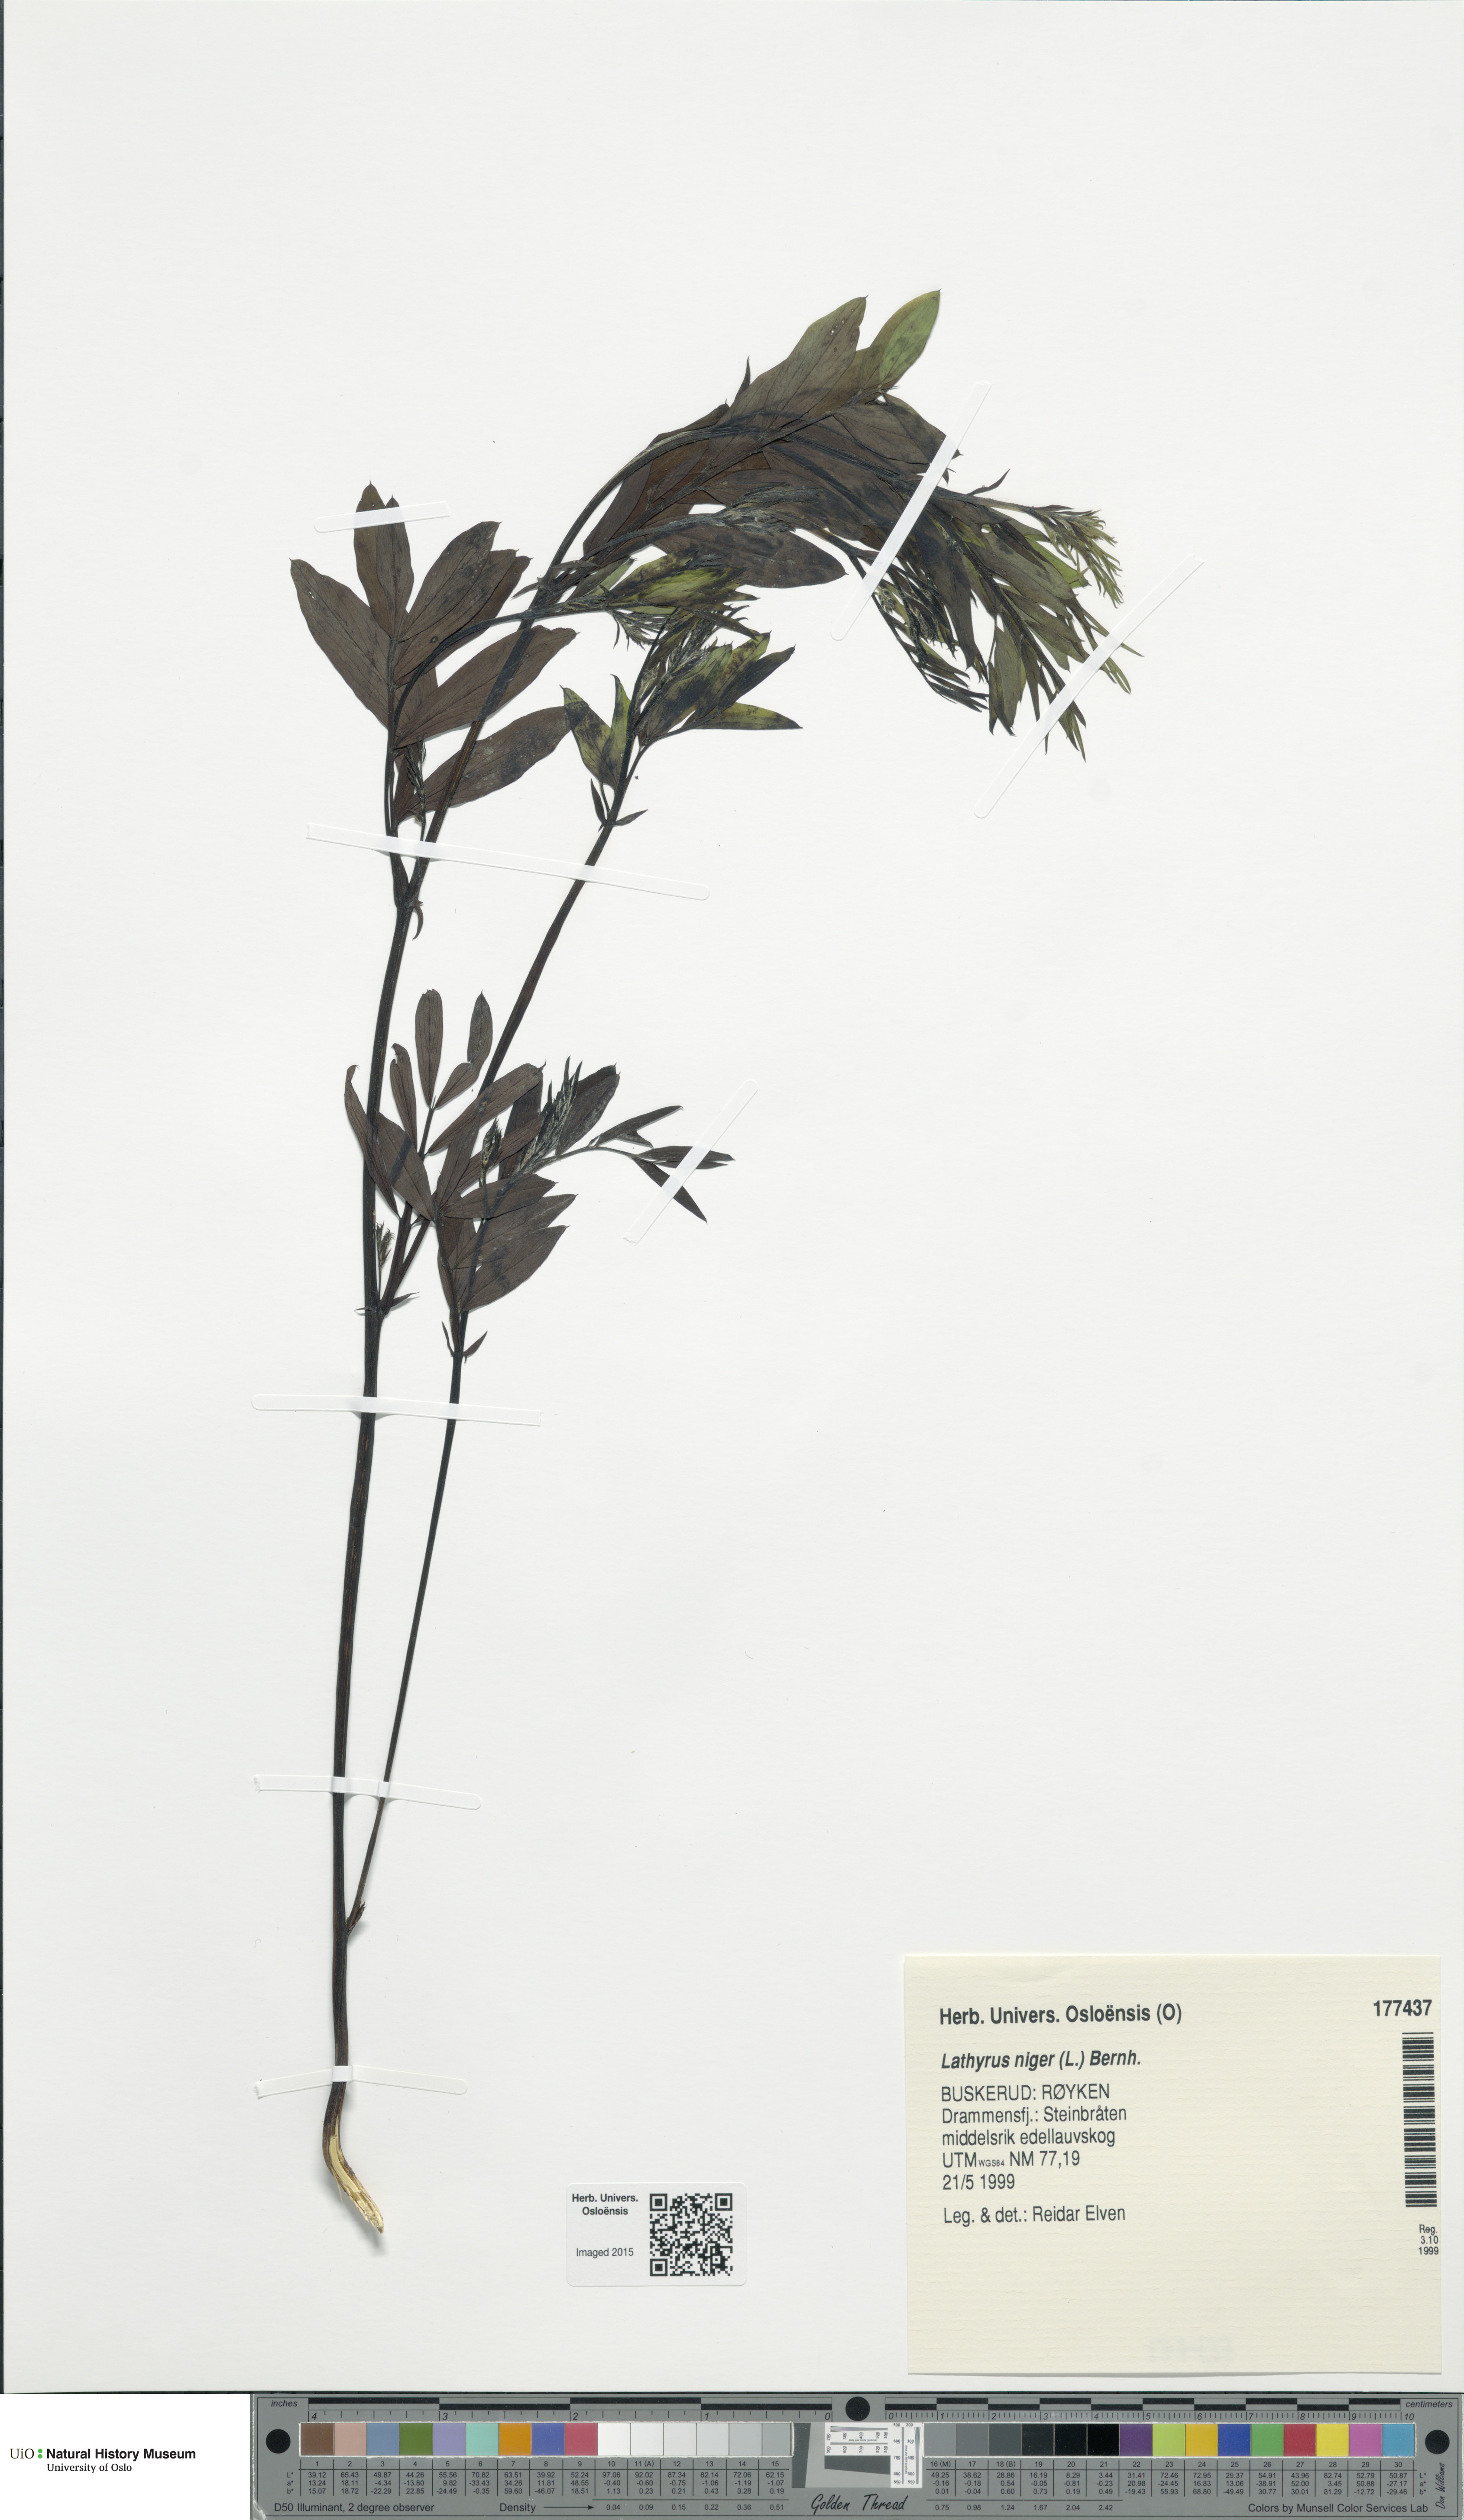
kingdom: Plantae
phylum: Tracheophyta
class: Magnoliopsida
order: Fabales
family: Fabaceae
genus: Lathyrus
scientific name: Lathyrus niger
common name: Black pea
